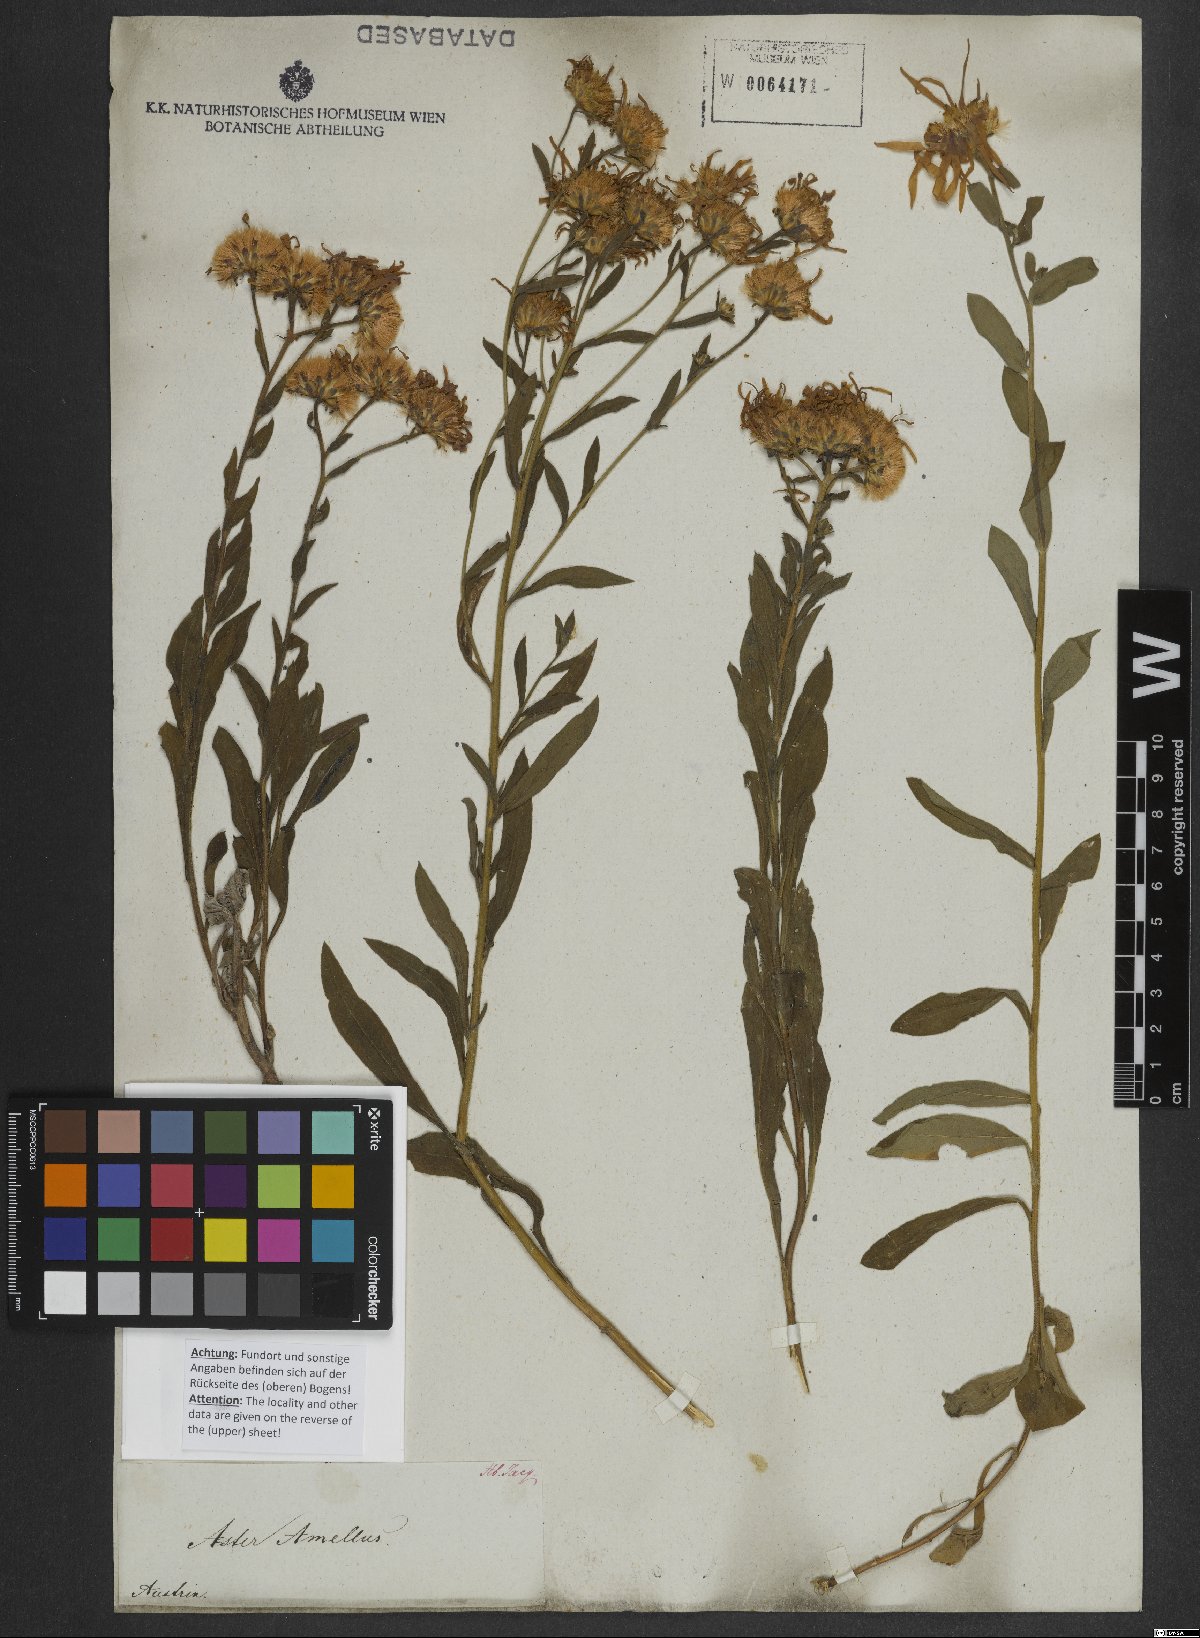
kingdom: Plantae
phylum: Tracheophyta
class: Magnoliopsida
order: Asterales
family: Asteraceae
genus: Aster
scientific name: Aster amellus
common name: European michaelmas daisy
